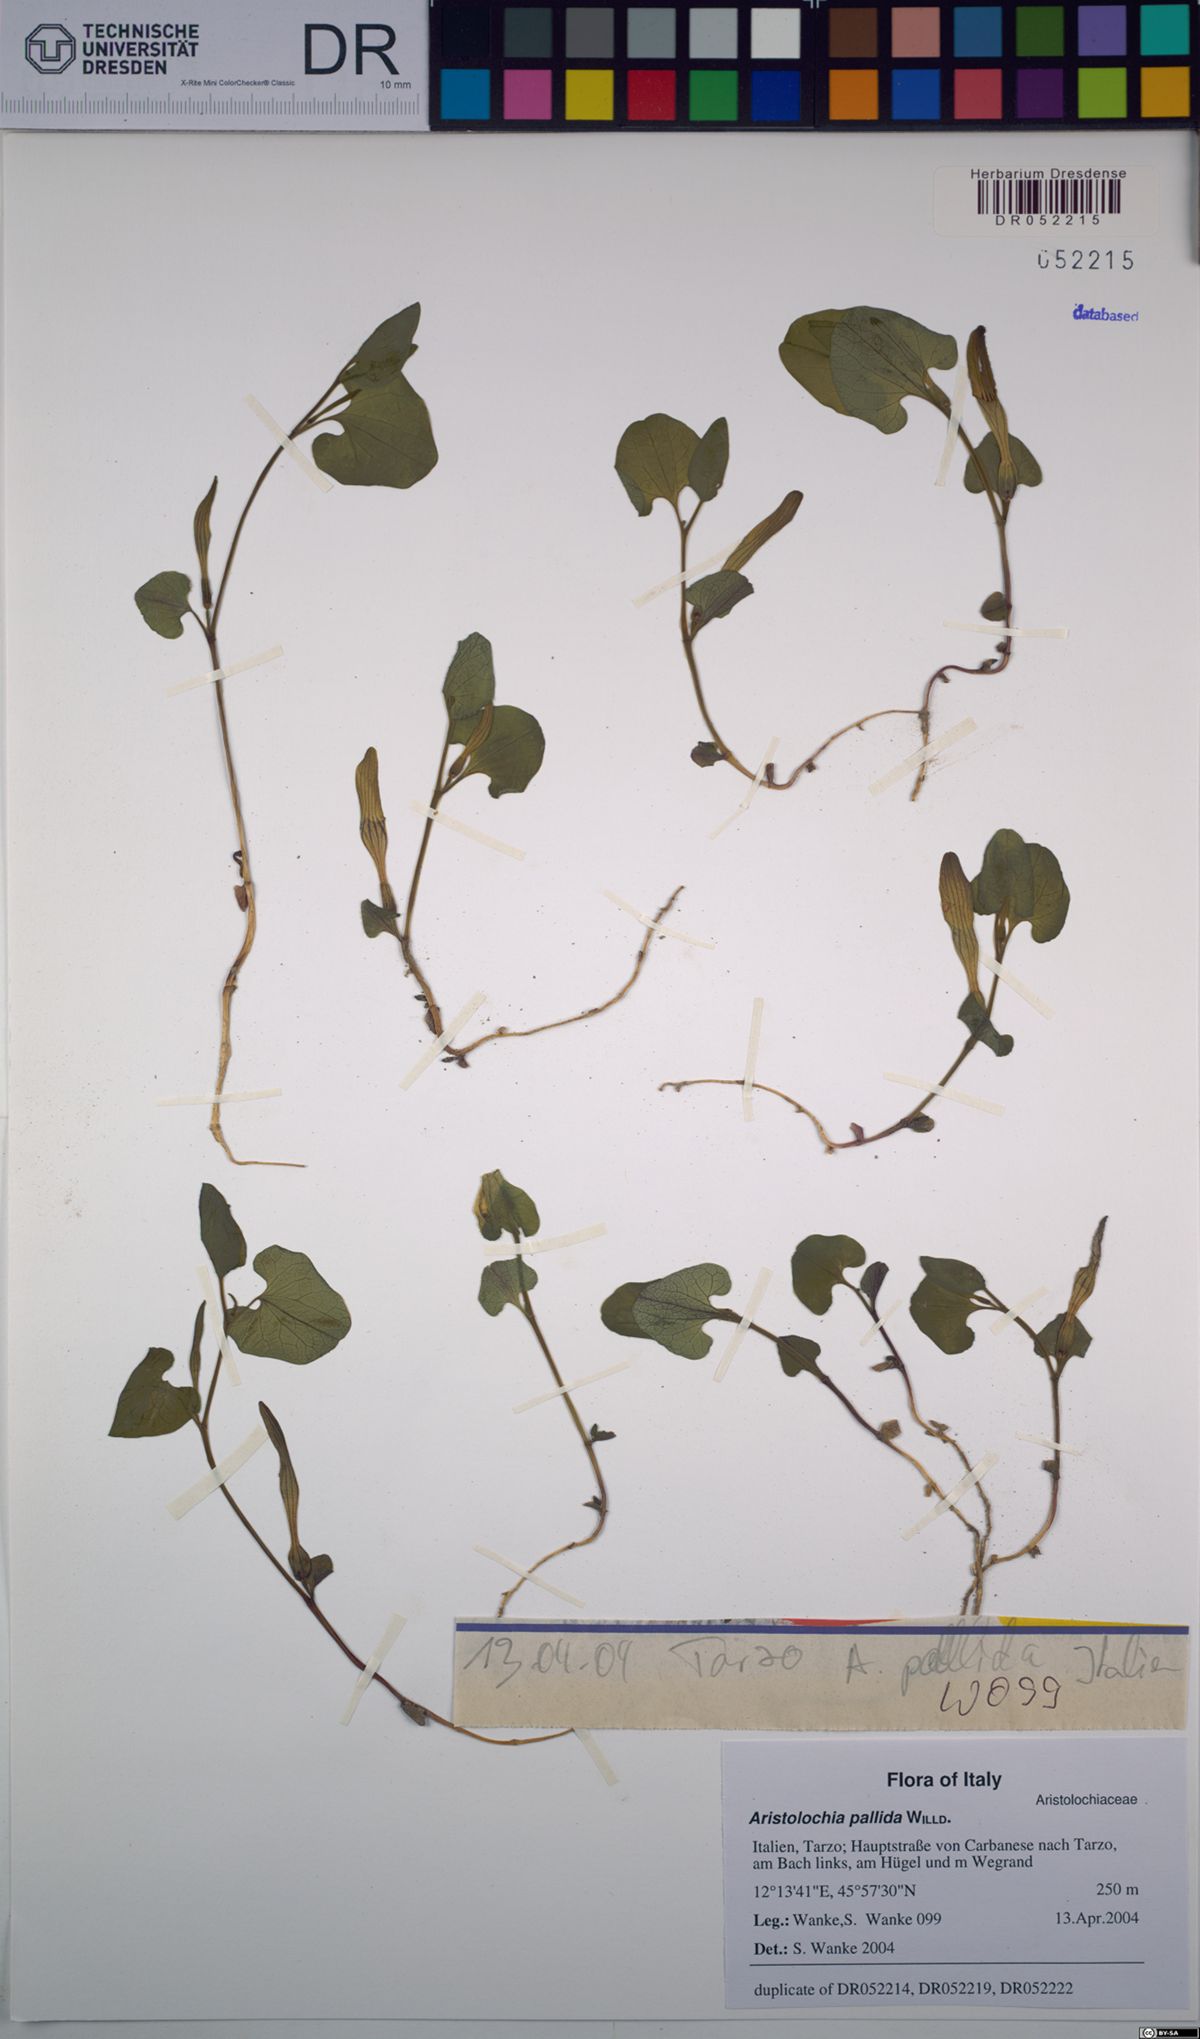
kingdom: Plantae
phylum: Tracheophyta
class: Magnoliopsida
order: Piperales
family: Aristolochiaceae
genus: Aristolochia
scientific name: Aristolochia pallida
